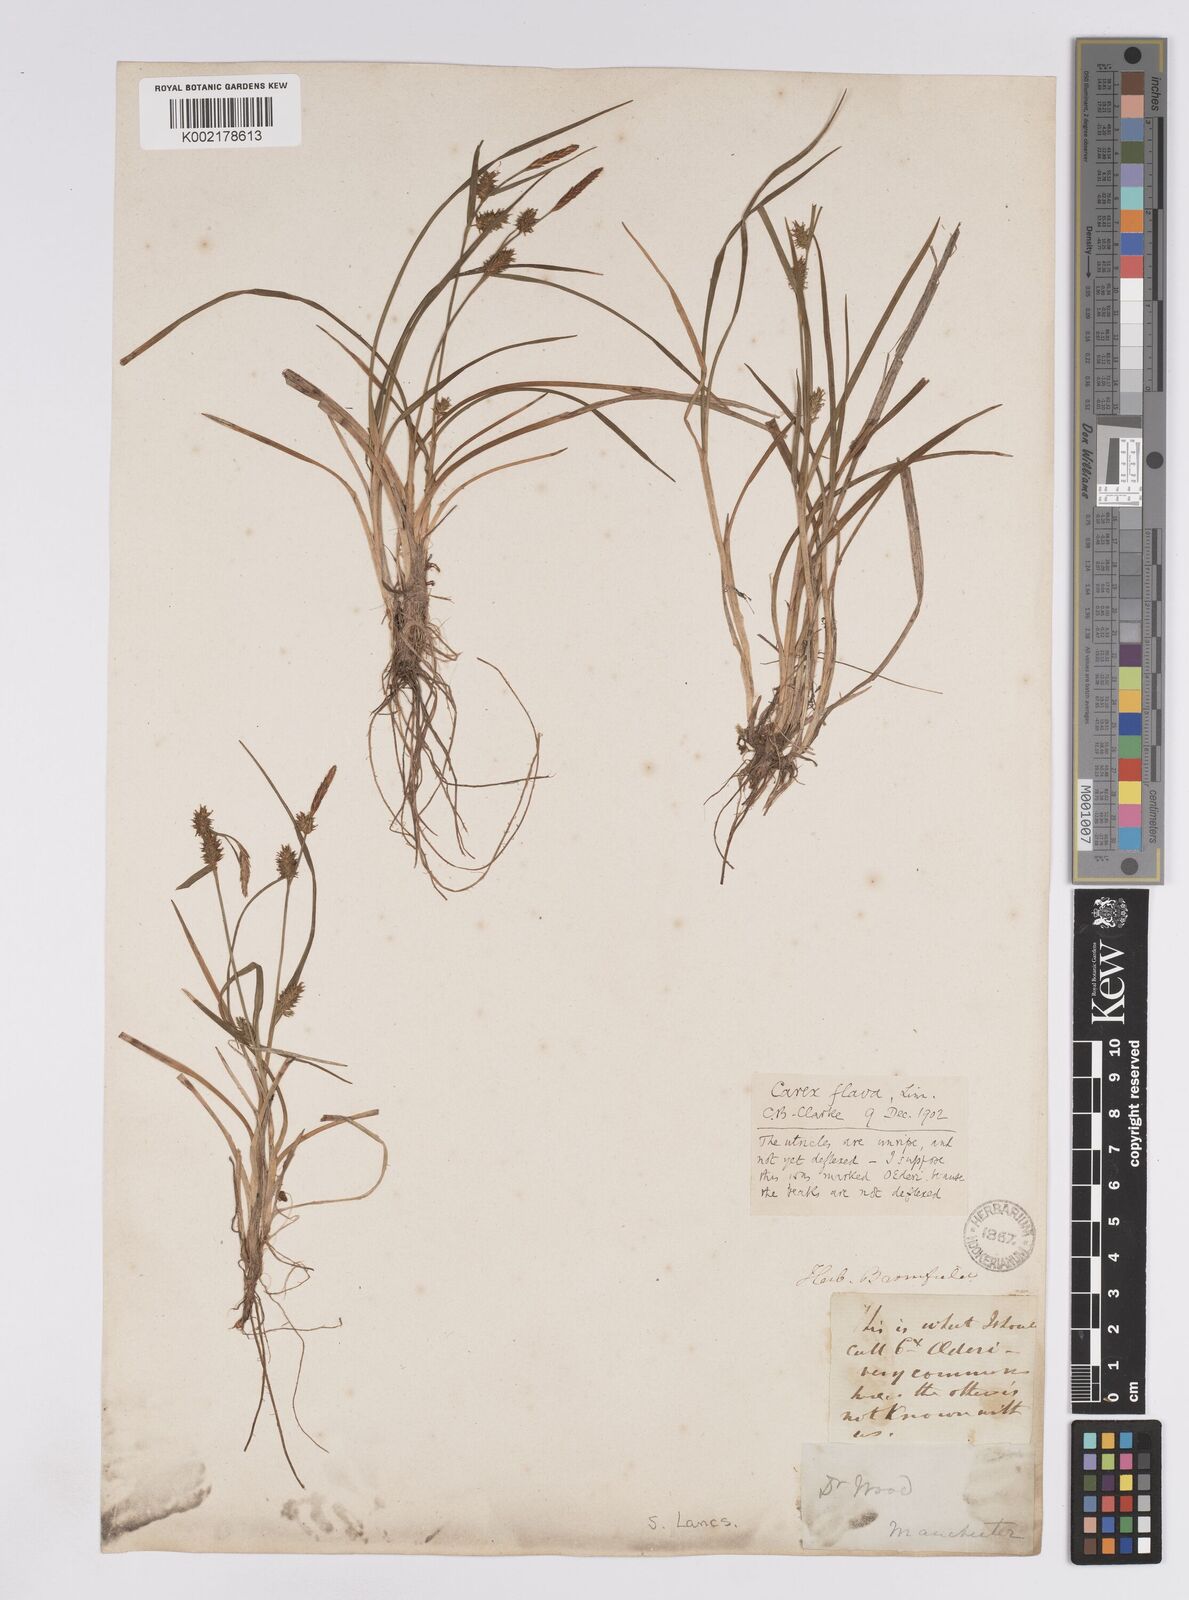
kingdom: Plantae
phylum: Tracheophyta
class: Liliopsida
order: Poales
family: Cyperaceae
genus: Carex
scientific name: Carex lepidocarpa
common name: Long-stalked yellow-sedge
